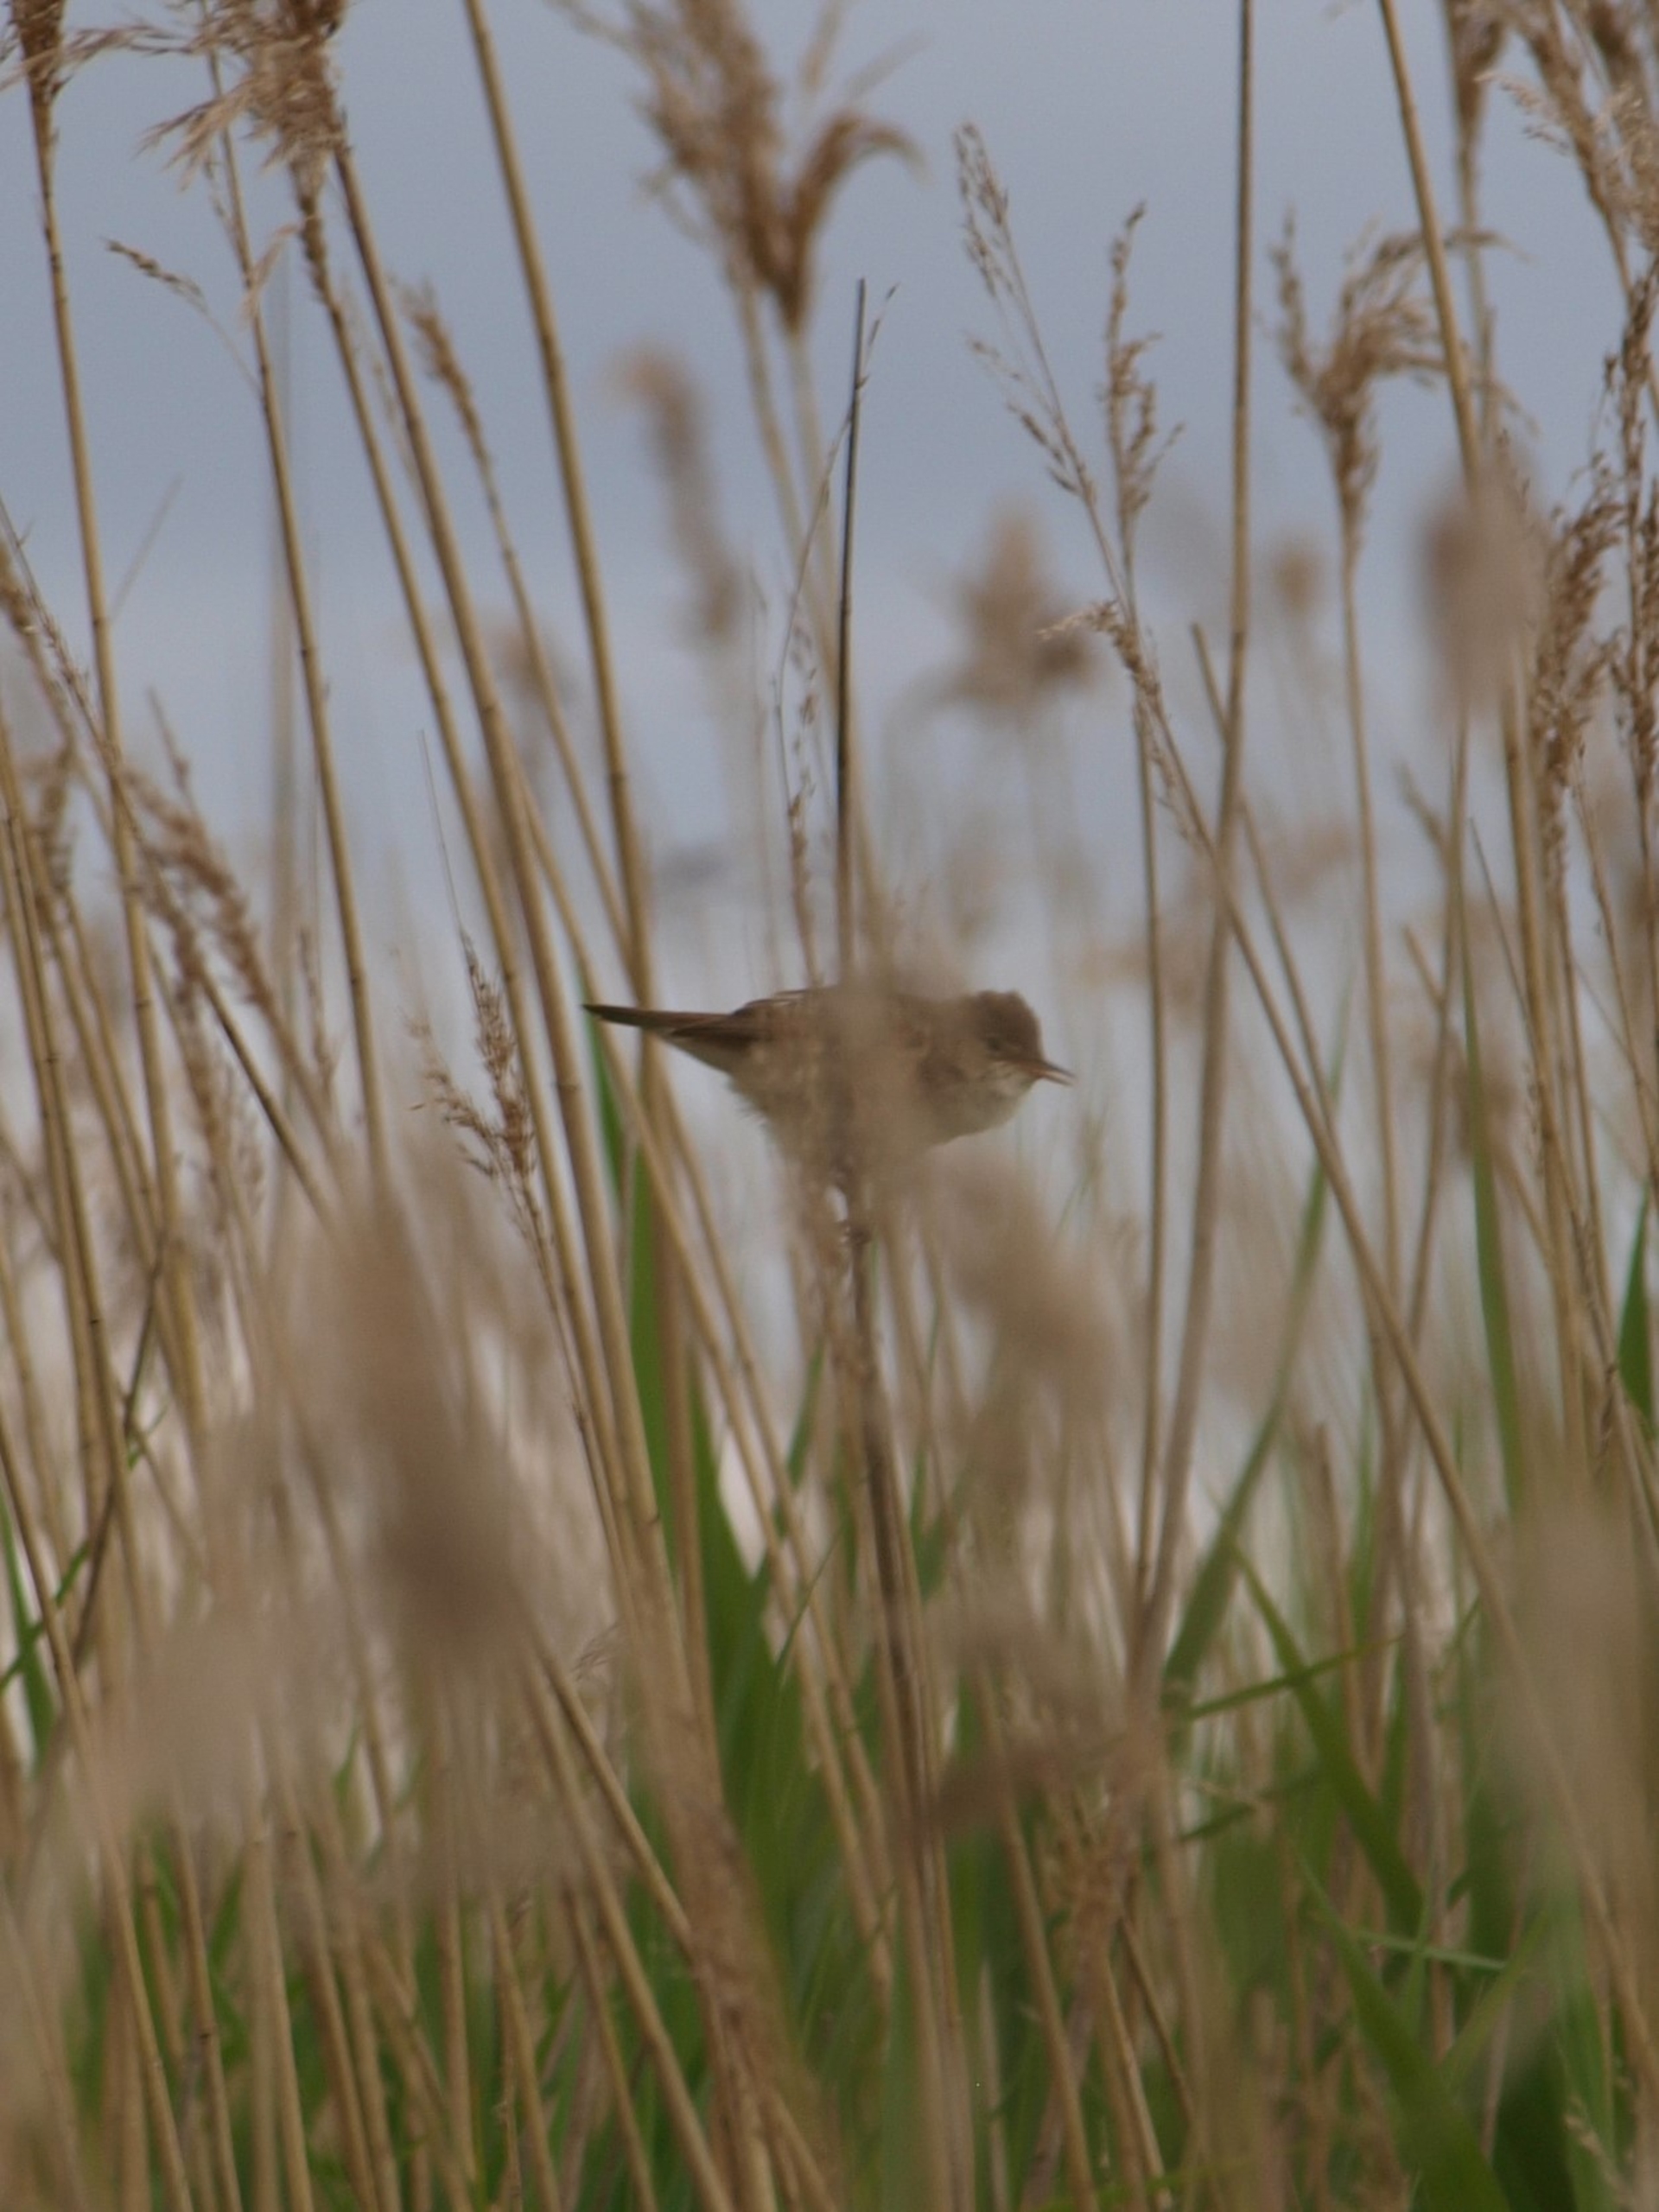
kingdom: Animalia
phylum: Chordata
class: Aves
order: Passeriformes
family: Acrocephalidae
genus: Acrocephalus
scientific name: Acrocephalus scirpaceus
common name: Rørsanger
